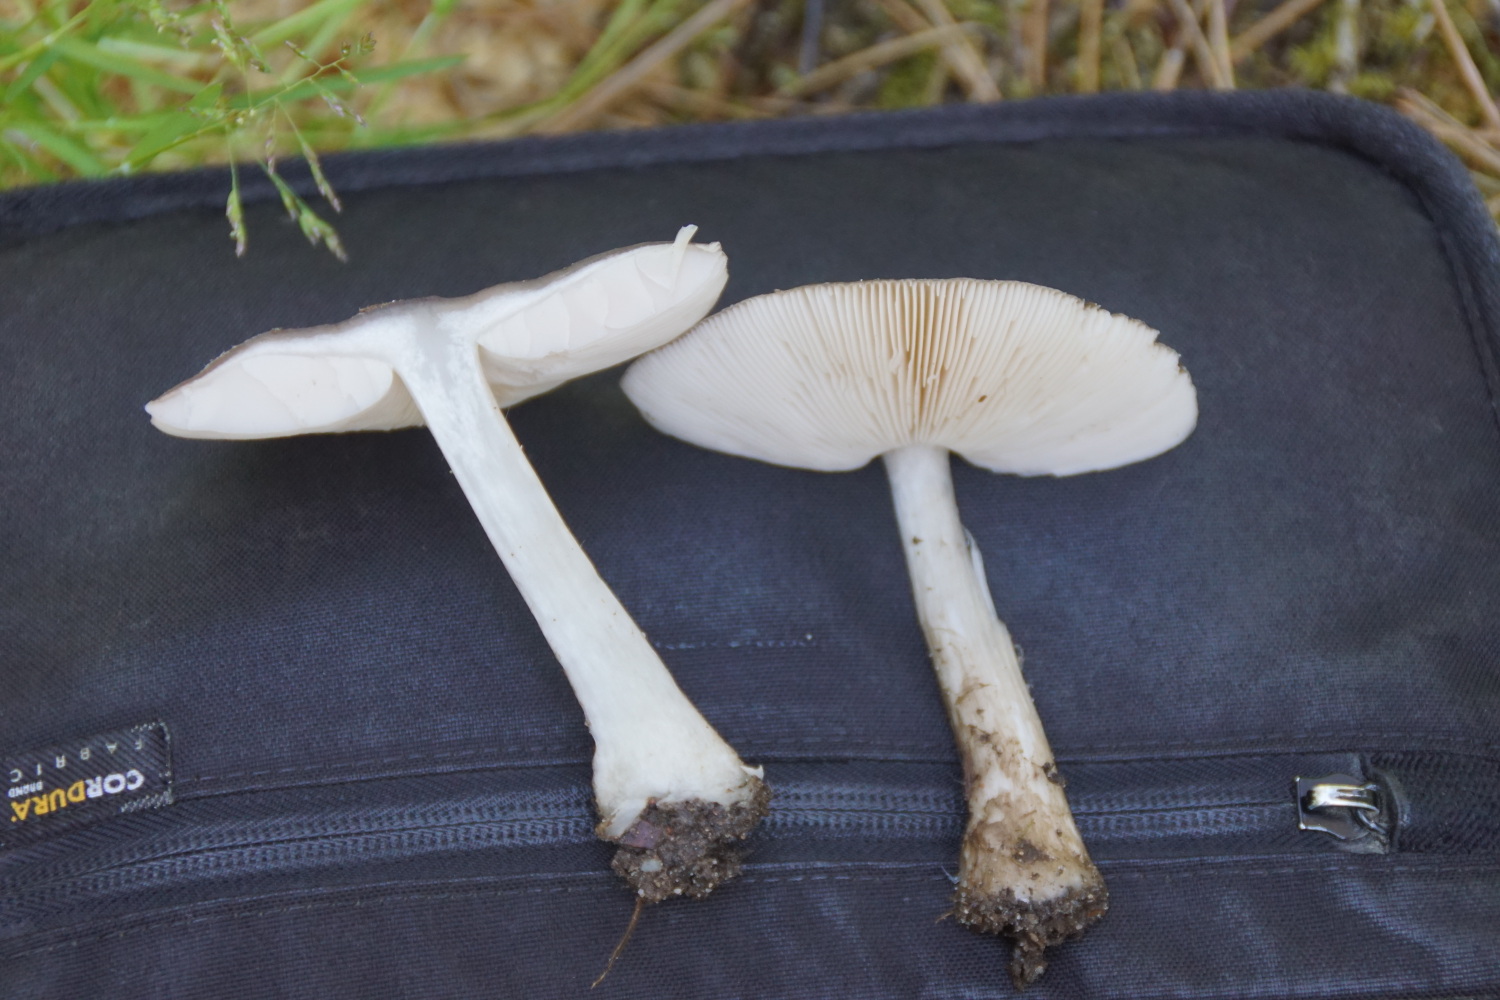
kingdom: Fungi
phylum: Basidiomycota
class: Agaricomycetes
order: Agaricales
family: Pluteaceae
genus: Pluteus
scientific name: Pluteus
